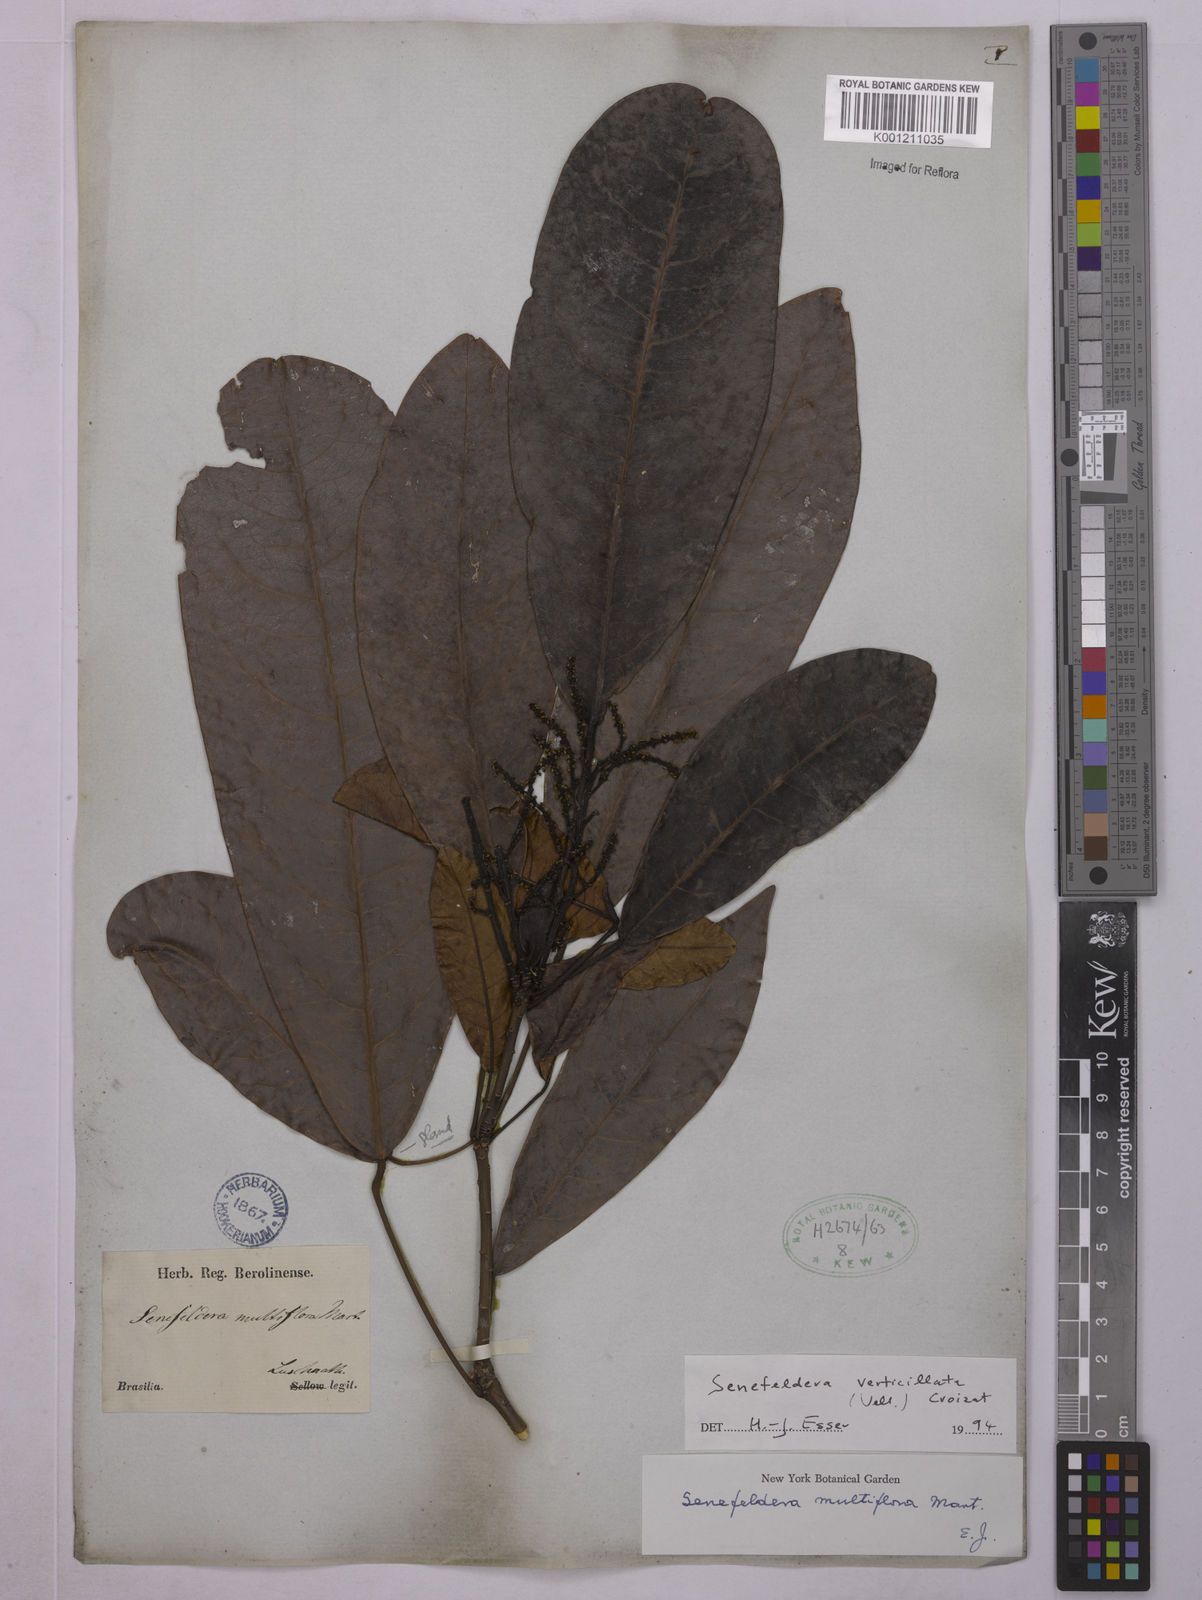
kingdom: Plantae
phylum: Tracheophyta
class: Magnoliopsida
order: Malpighiales
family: Euphorbiaceae
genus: Senefeldera
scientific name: Senefeldera verticillata
